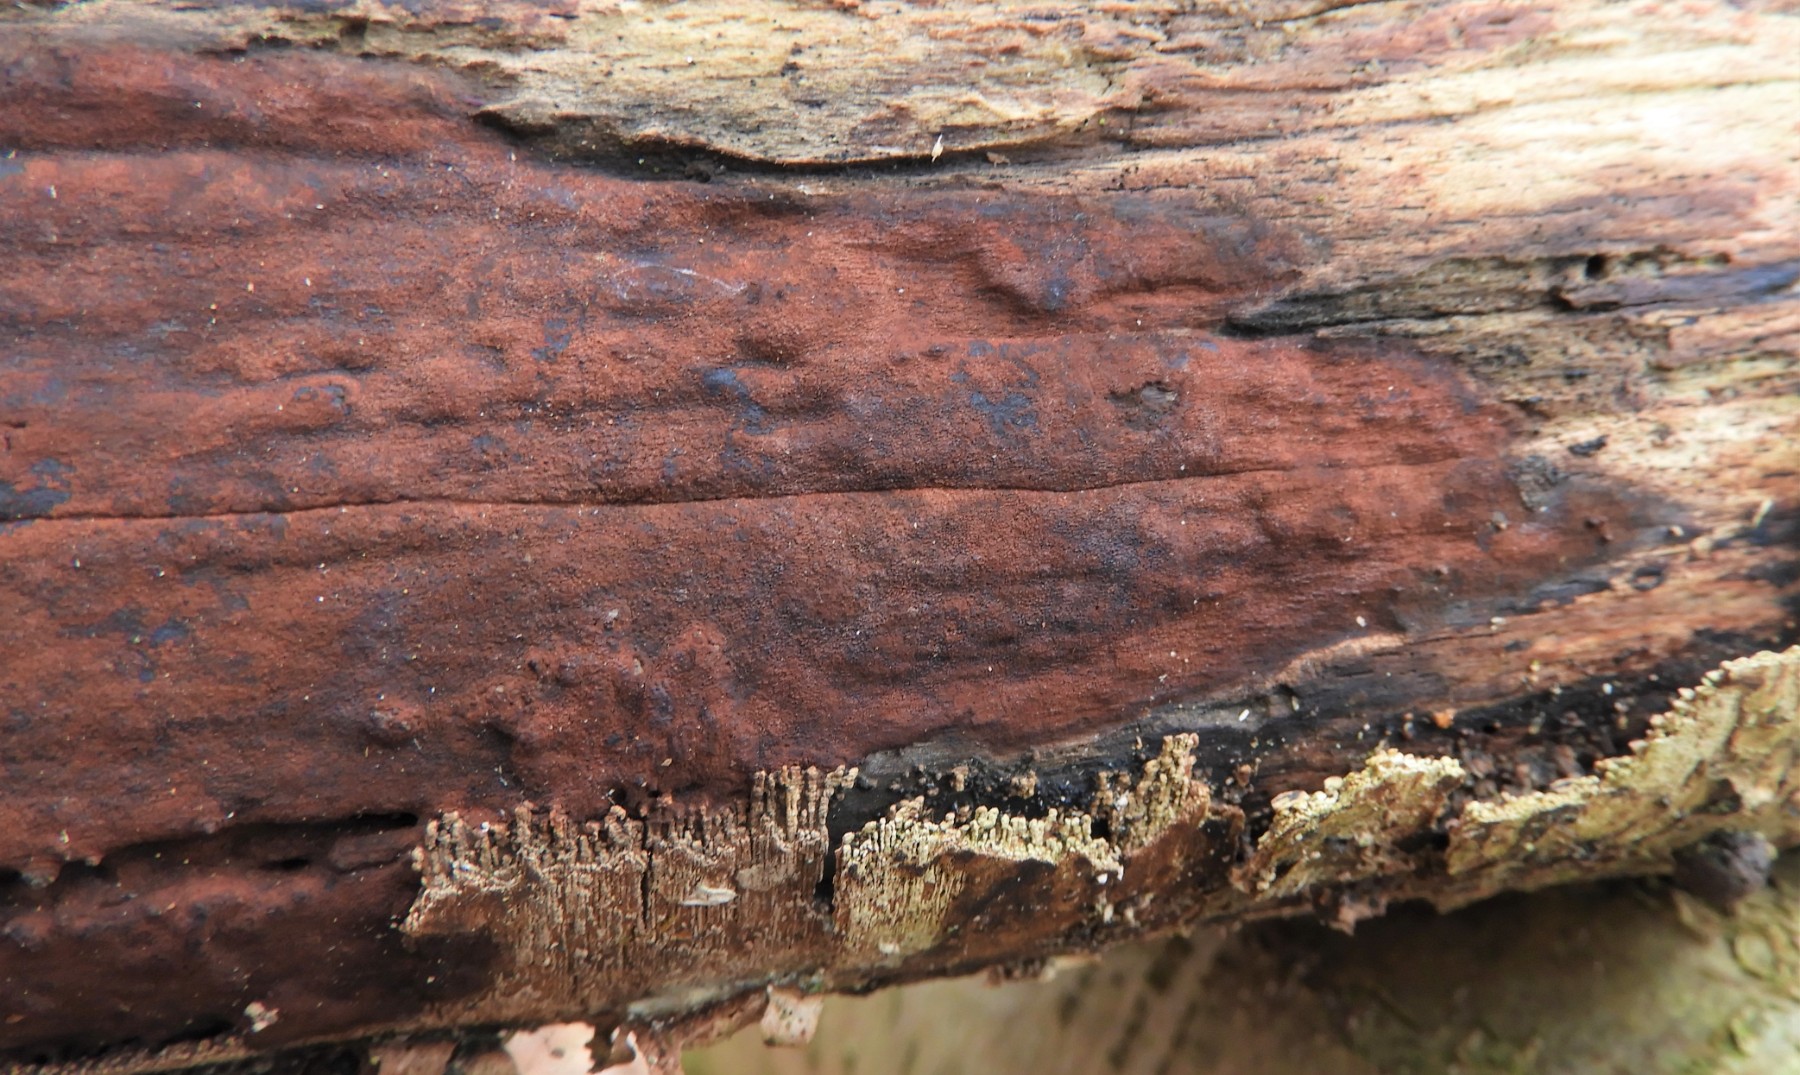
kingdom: Fungi
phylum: Ascomycota
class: Sordariomycetes
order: Xylariales
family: Hypoxylaceae
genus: Hypoxylon
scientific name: Hypoxylon macrocarpum
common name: skorpe-kulbær
